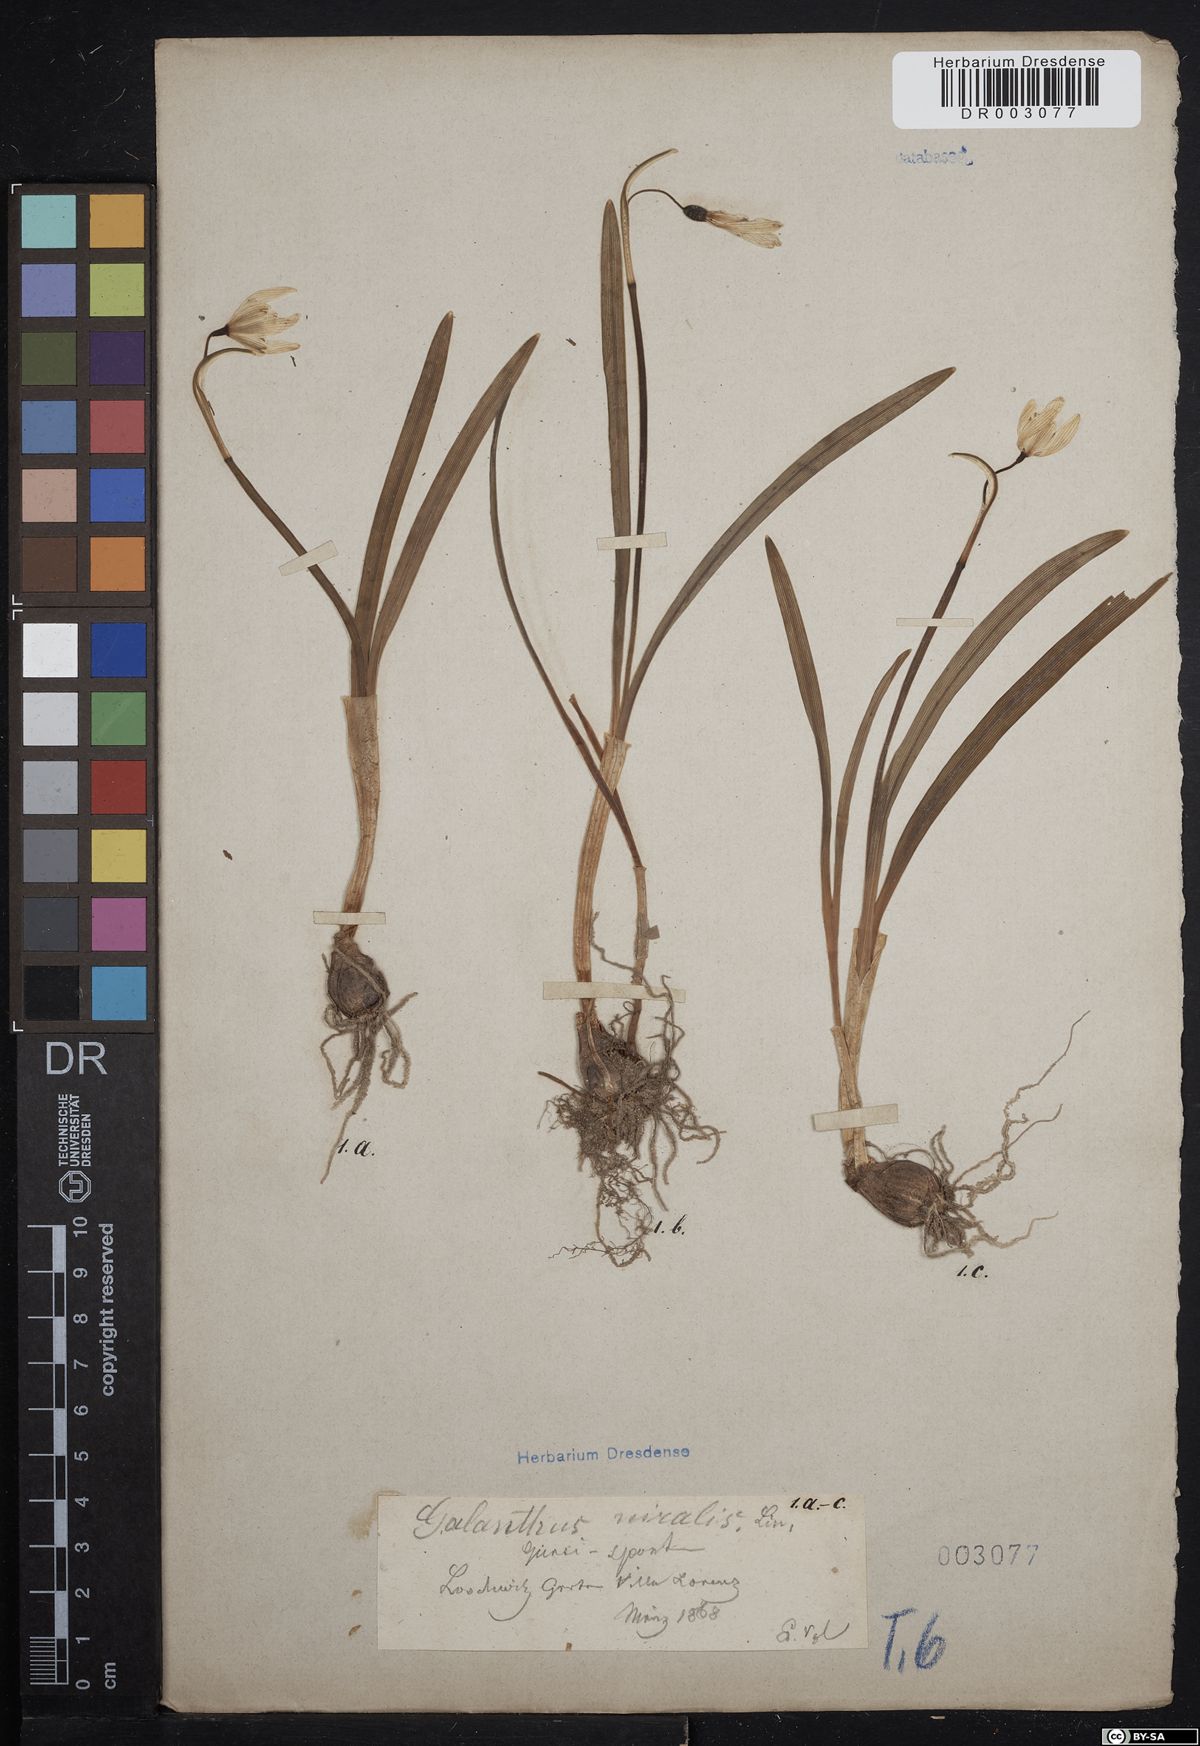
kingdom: Plantae
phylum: Tracheophyta
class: Liliopsida
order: Asparagales
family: Amaryllidaceae
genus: Galanthus
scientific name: Galanthus nivalis
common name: Snowdrop
